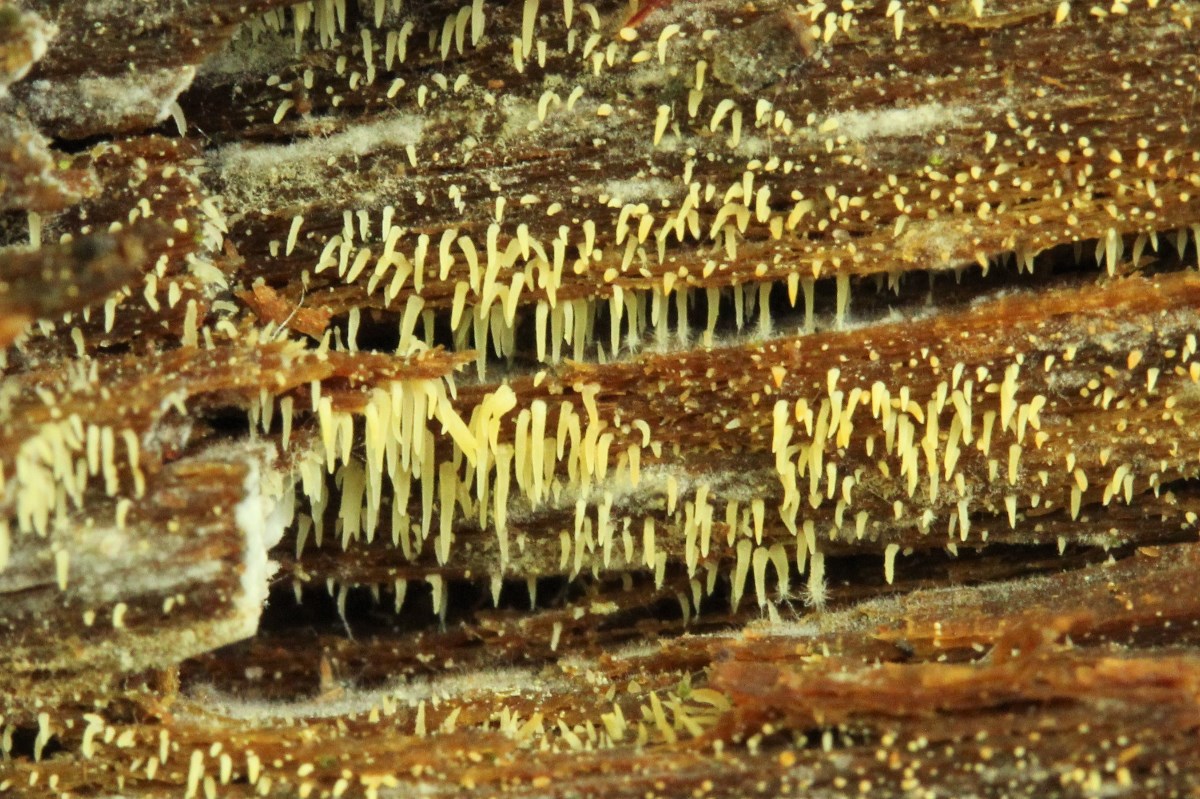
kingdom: Fungi
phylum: Basidiomycota
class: Agaricomycetes
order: Agaricales
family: Clavariaceae
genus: Mucronella
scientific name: Mucronella
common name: hængepig
